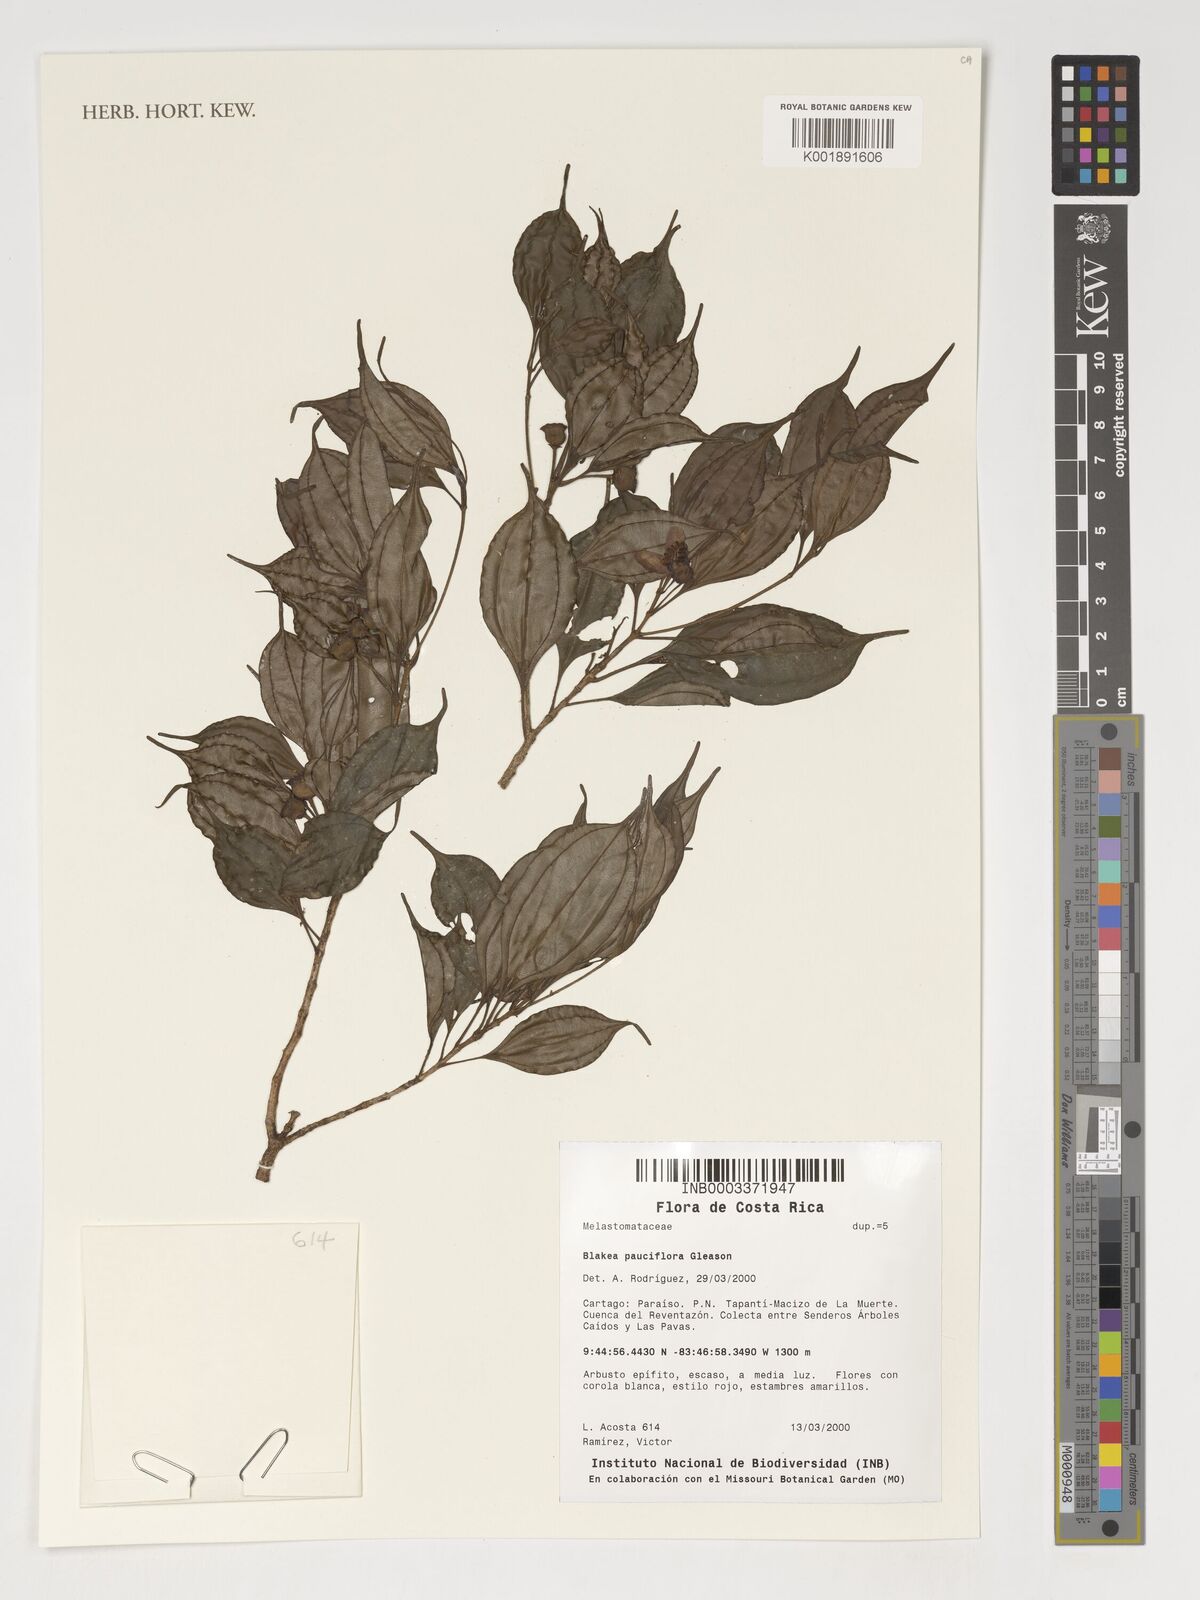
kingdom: Plantae
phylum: Tracheophyta
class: Magnoliopsida
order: Myrtales
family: Melastomataceae
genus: Blakea
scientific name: Blakea pauciflora
